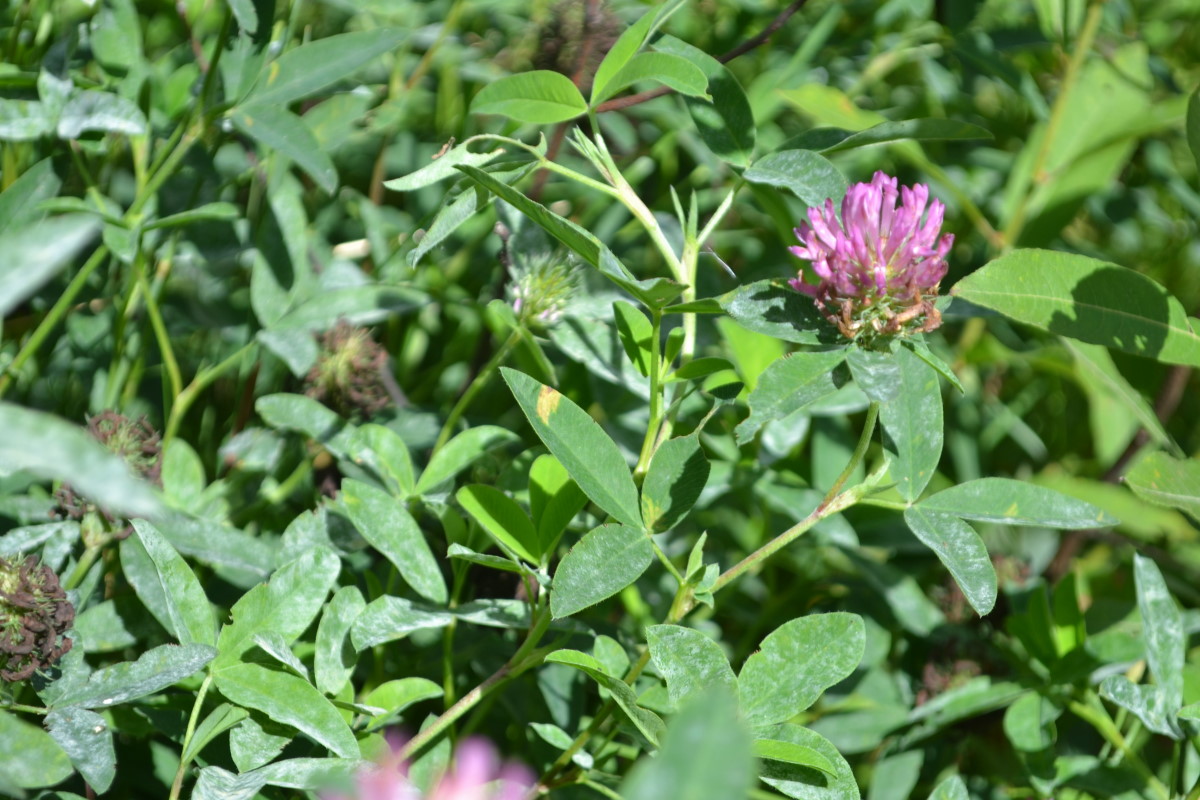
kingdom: Plantae
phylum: Tracheophyta
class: Magnoliopsida
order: Fabales
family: Fabaceae
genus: Trifolium
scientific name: Trifolium medium
